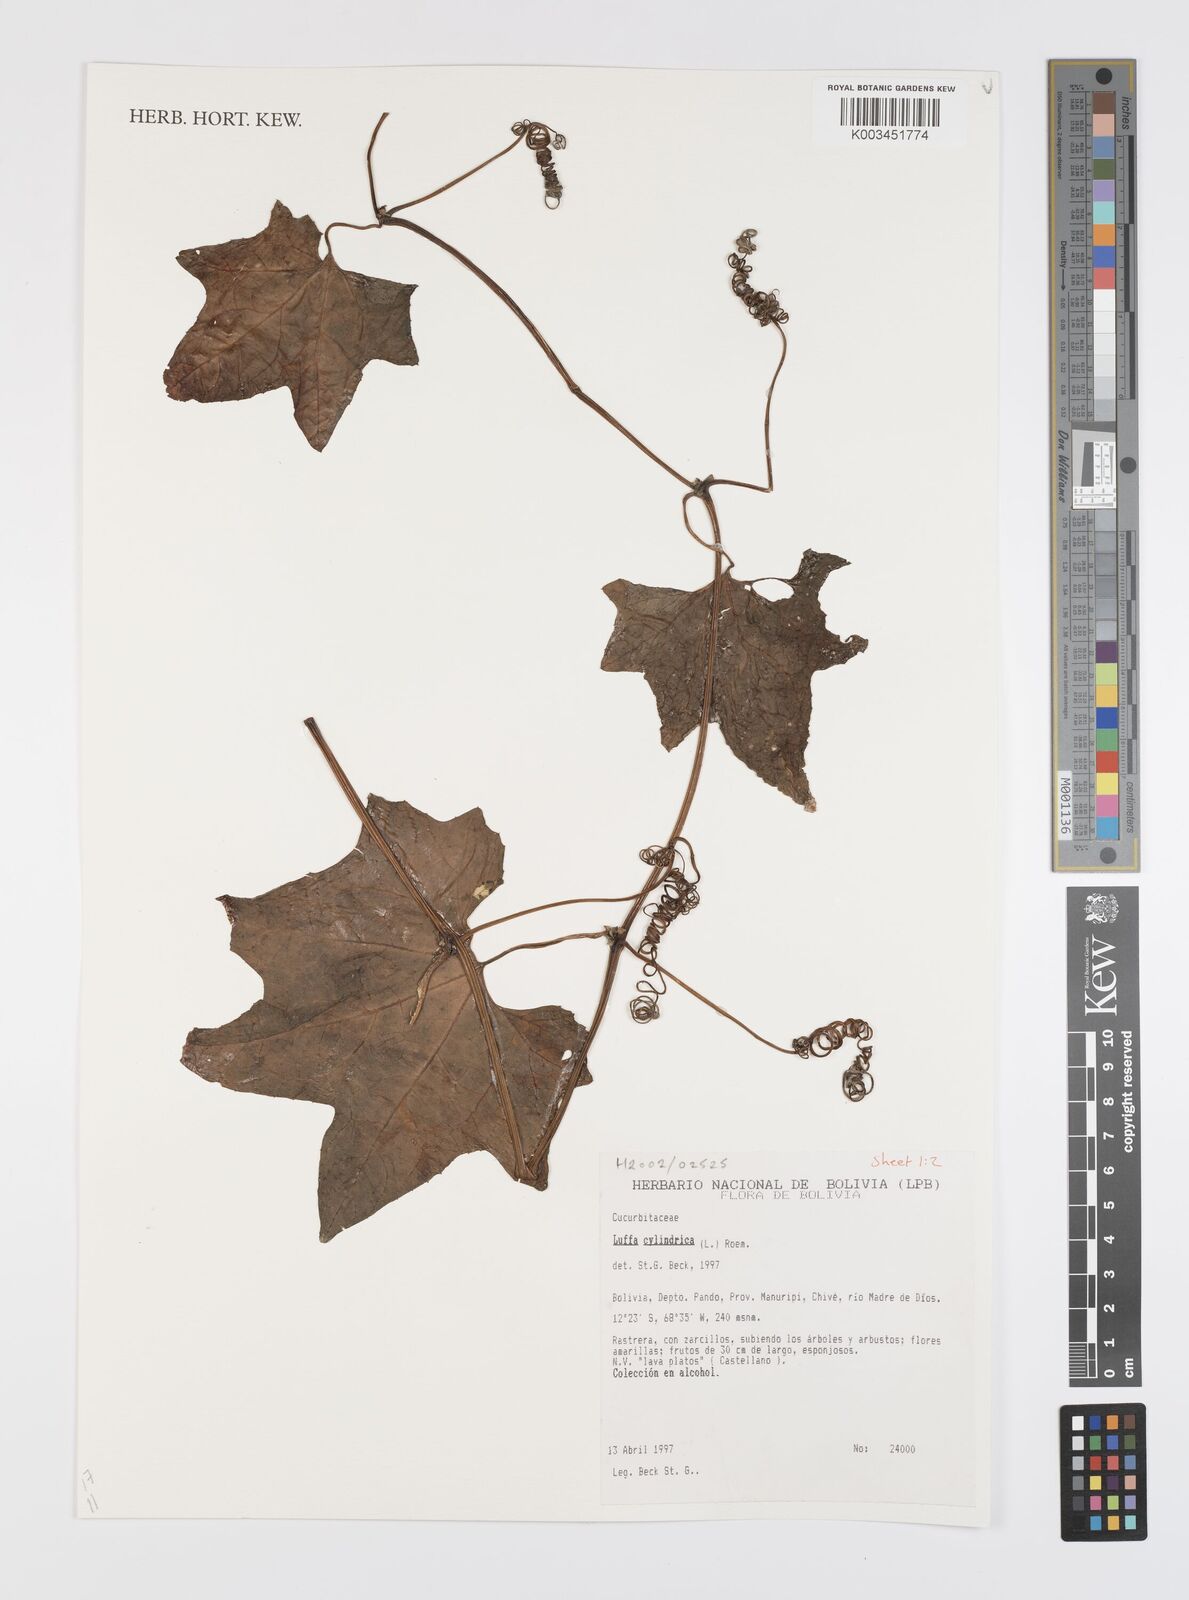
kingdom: Plantae
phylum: Tracheophyta
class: Magnoliopsida
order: Cucurbitales
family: Cucurbitaceae
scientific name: Cucurbitaceae
